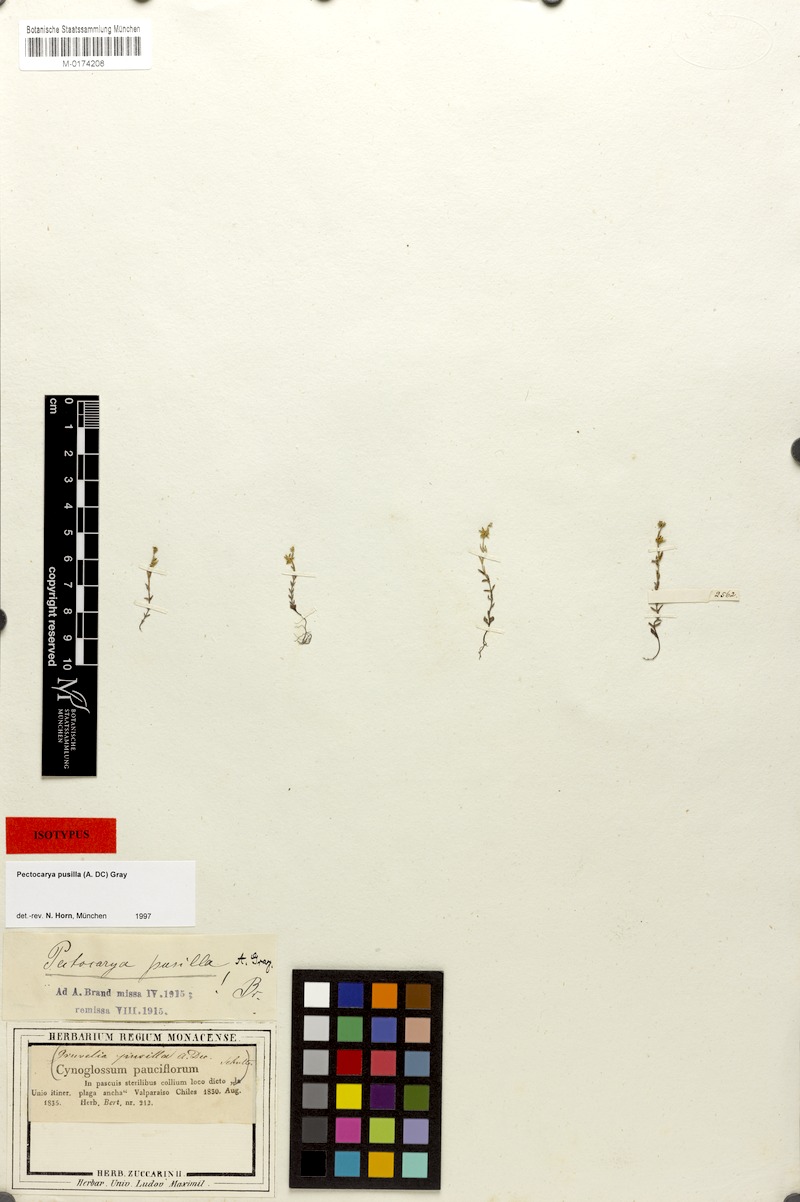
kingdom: Plantae
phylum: Tracheophyta
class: Magnoliopsida
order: Boraginales
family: Boraginaceae
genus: Pectocarya
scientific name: Pectocarya pusilla
